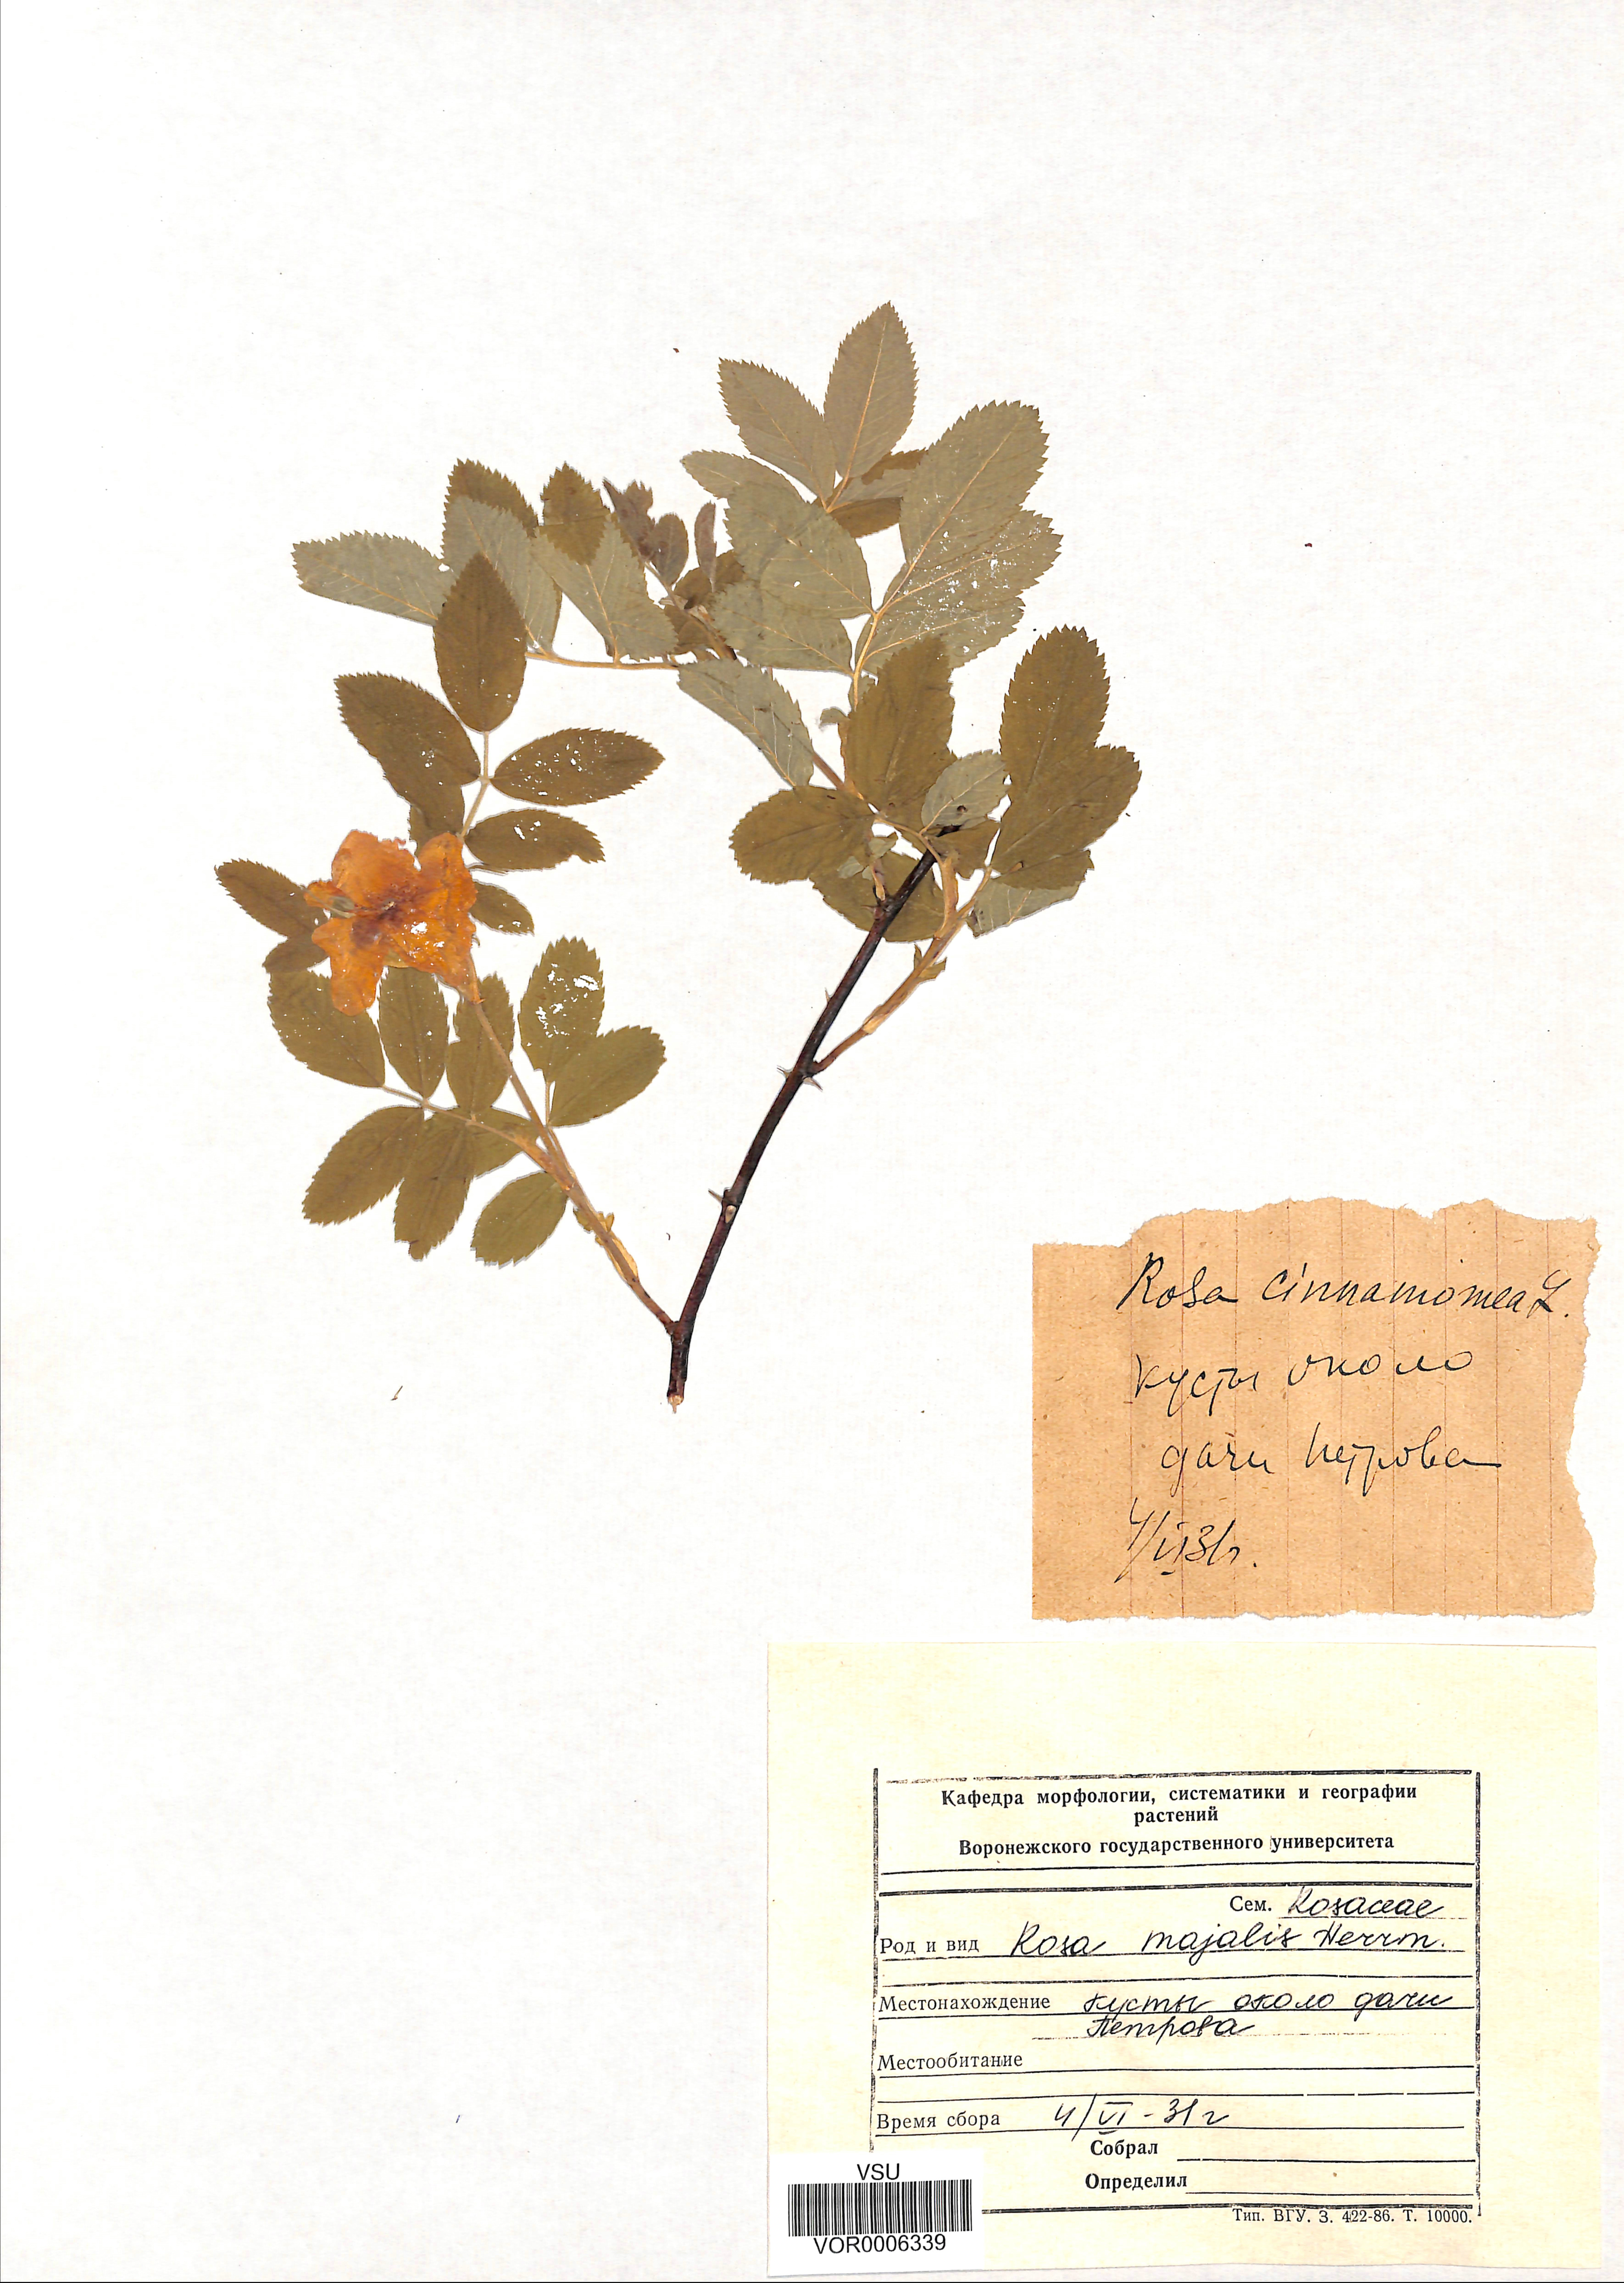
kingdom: Plantae
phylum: Tracheophyta
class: Magnoliopsida
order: Rosales
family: Rosaceae
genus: Rosa
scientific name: Rosa majalis
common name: Cinnamon rose
